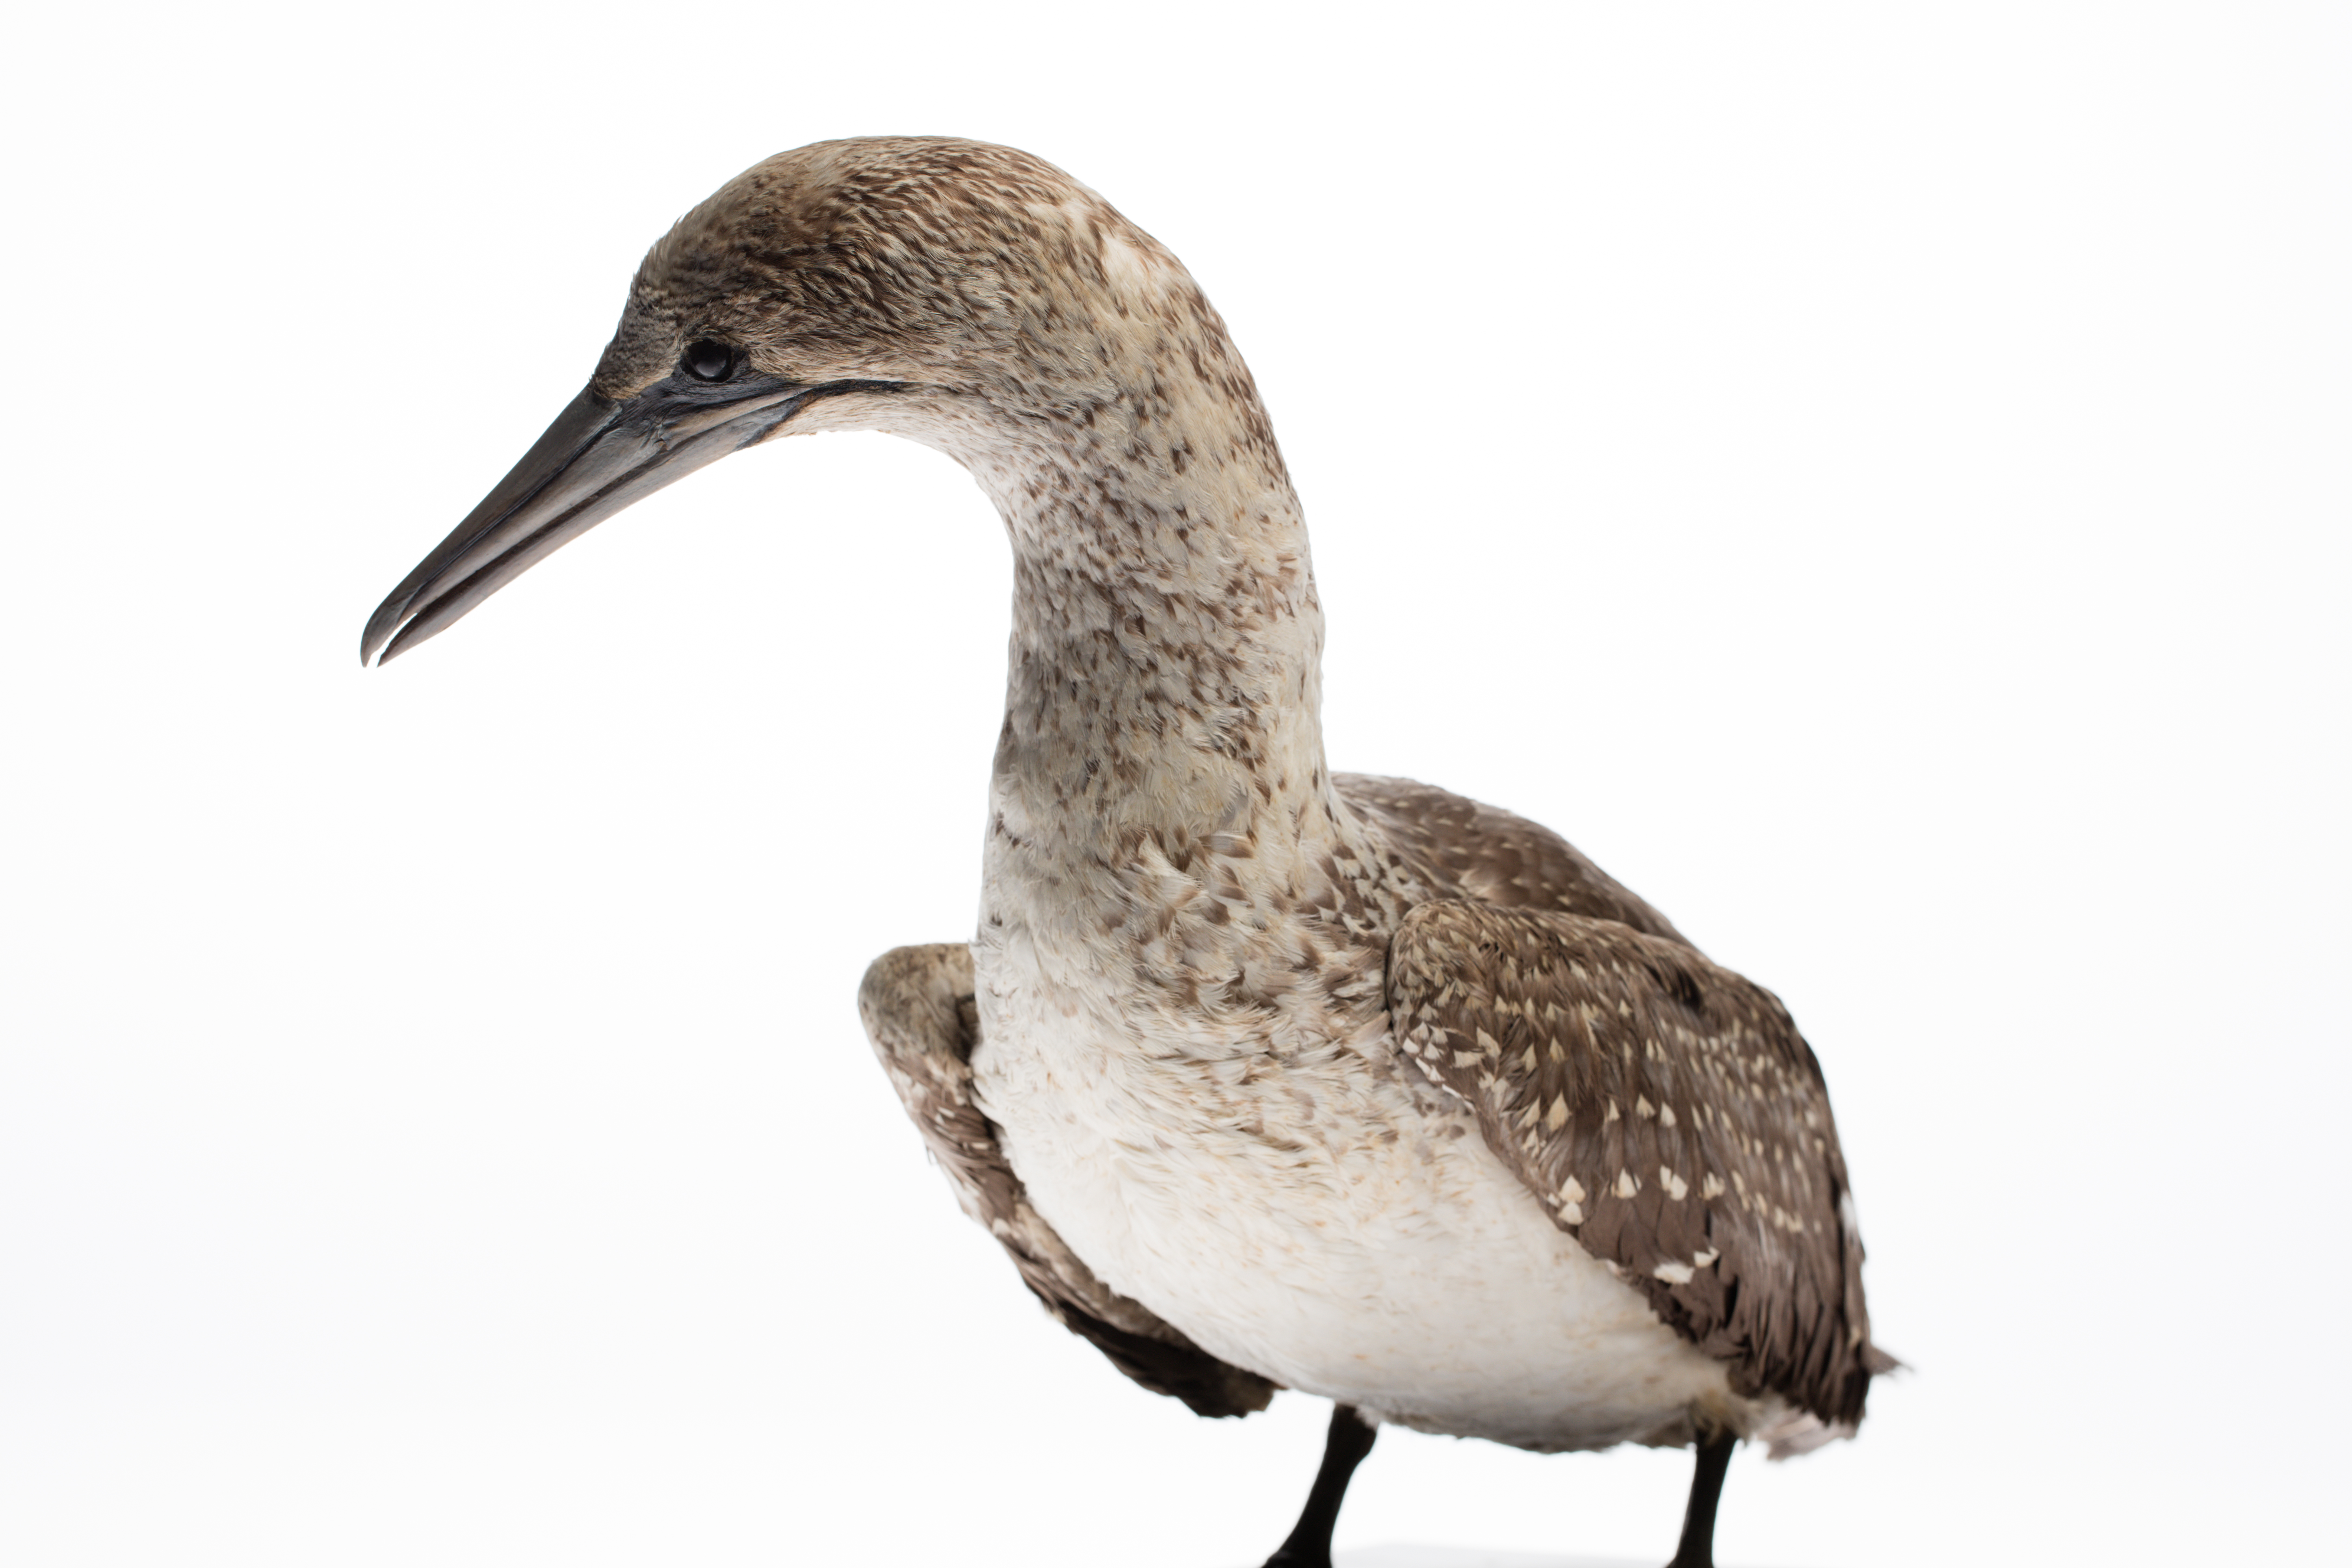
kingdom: Animalia
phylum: Chordata
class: Aves
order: Suliformes
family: Sulidae
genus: Morus
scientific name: Morus serrator
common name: Australasian gannet
